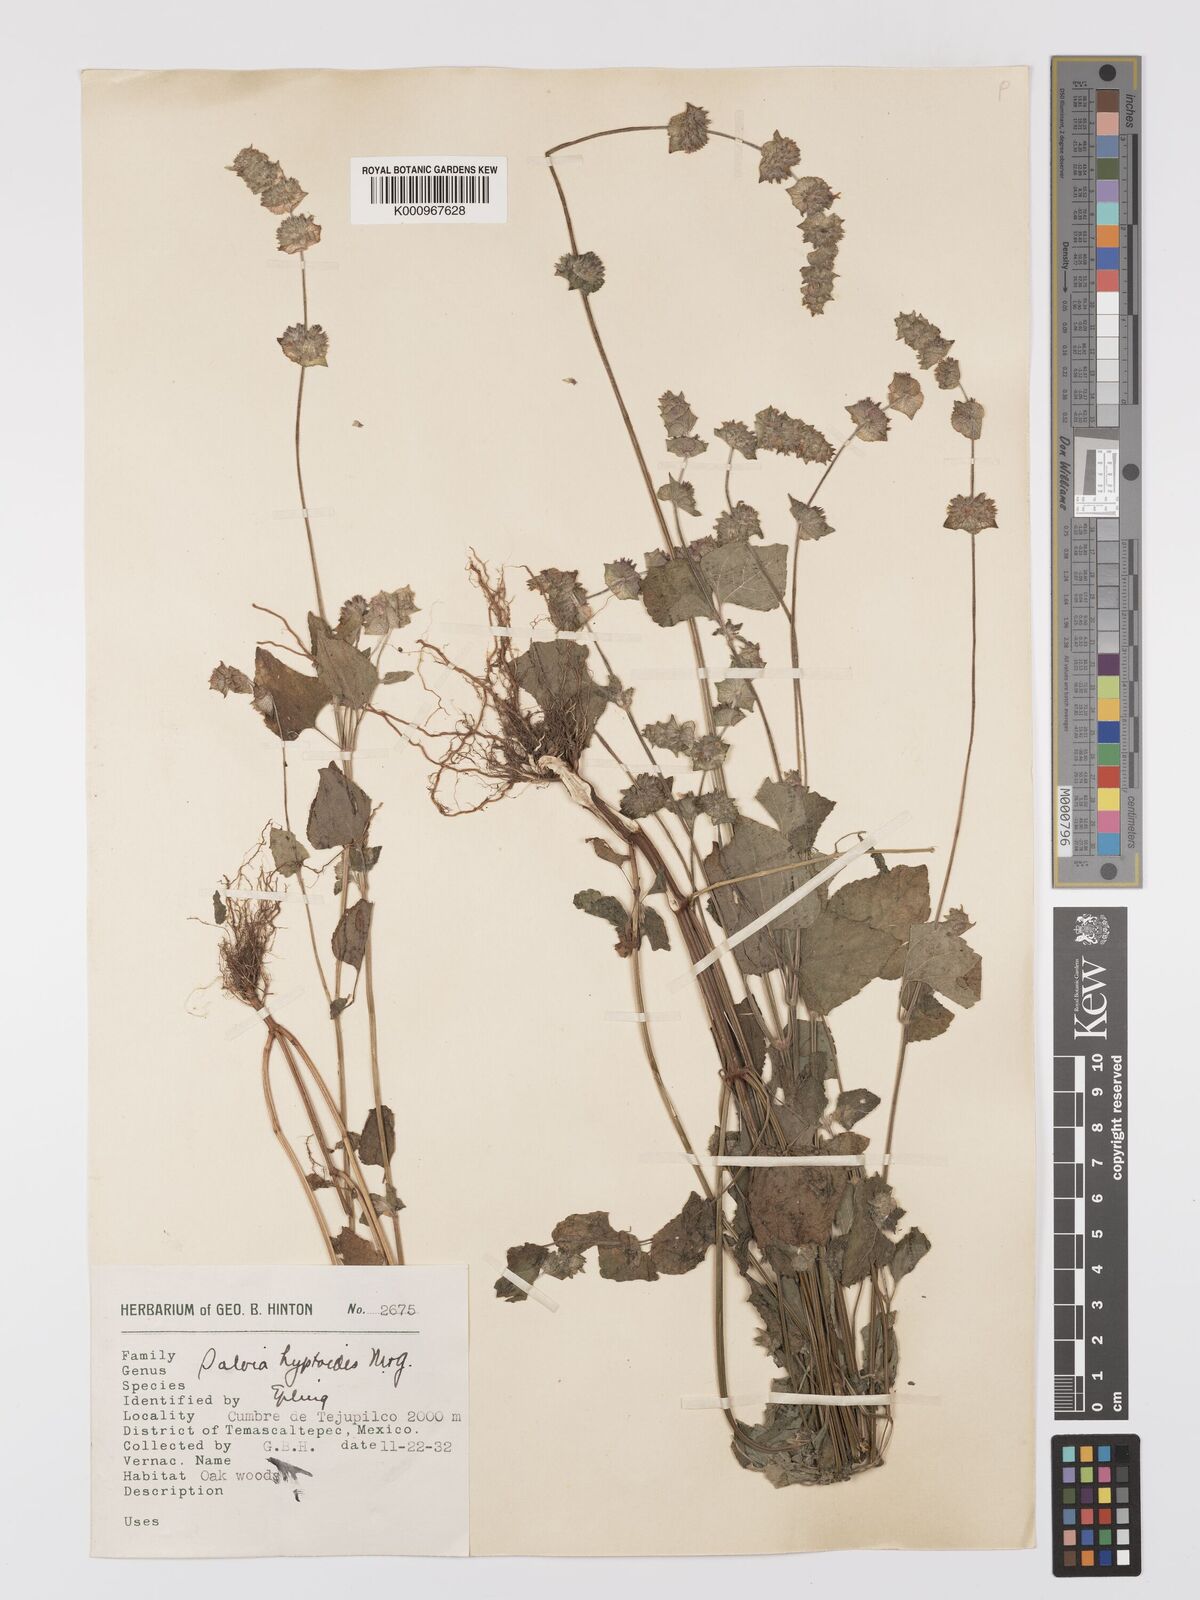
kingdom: Plantae
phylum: Tracheophyta
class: Magnoliopsida
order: Lamiales
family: Lamiaceae
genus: Salvia
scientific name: Salvia lasiocephala
